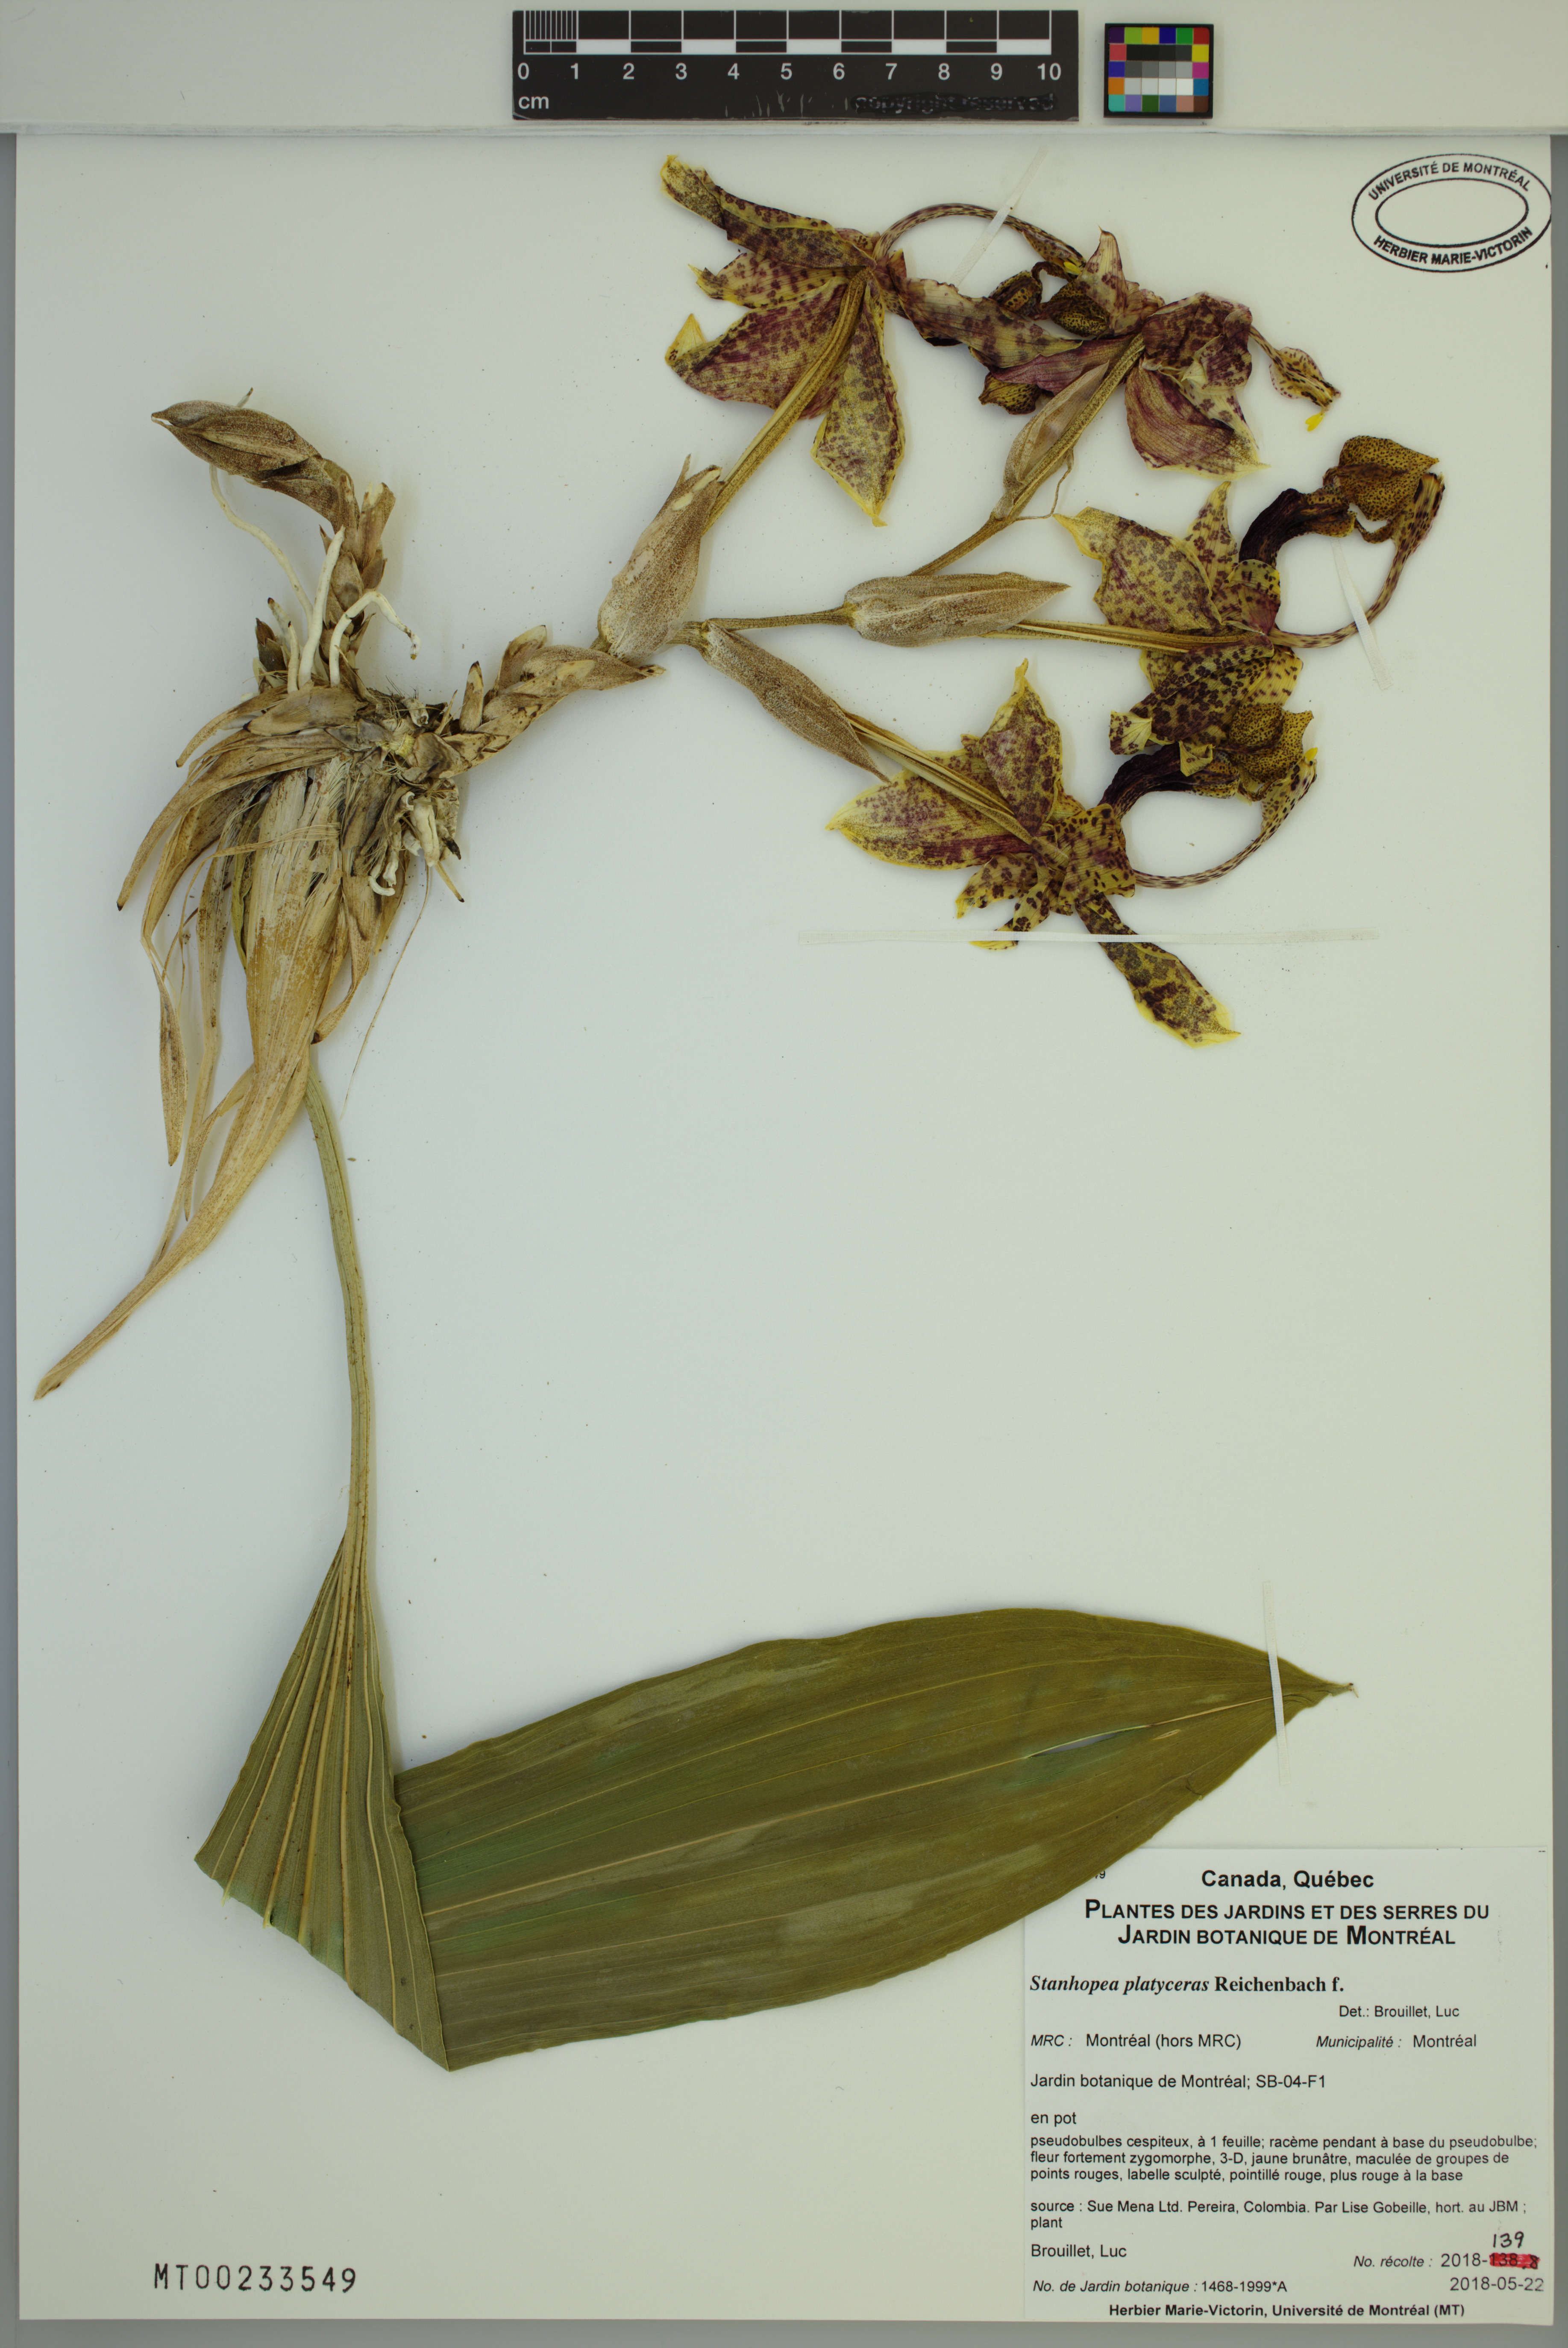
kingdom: Plantae
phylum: Tracheophyta
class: Liliopsida
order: Asparagales
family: Orchidaceae
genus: Stanhopea
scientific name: Stanhopea platyceras
